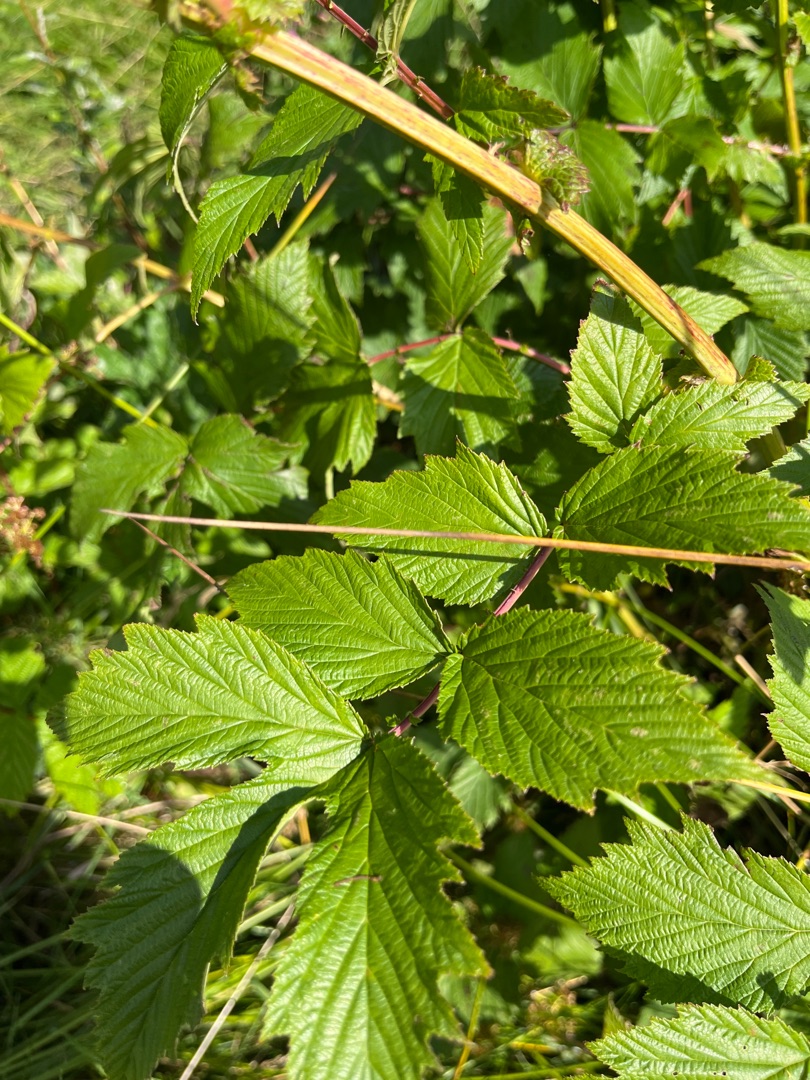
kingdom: Plantae
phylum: Tracheophyta
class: Magnoliopsida
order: Rosales
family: Rosaceae
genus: Filipendula
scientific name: Filipendula ulmaria
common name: Almindelig mjødurt
